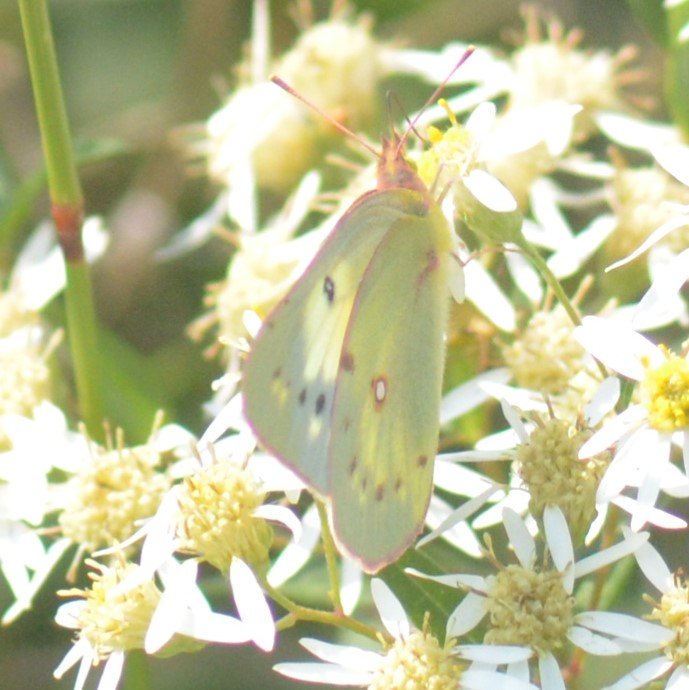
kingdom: Animalia
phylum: Arthropoda
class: Insecta
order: Lepidoptera
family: Pieridae
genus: Colias
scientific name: Colias
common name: Clouded Yellows
